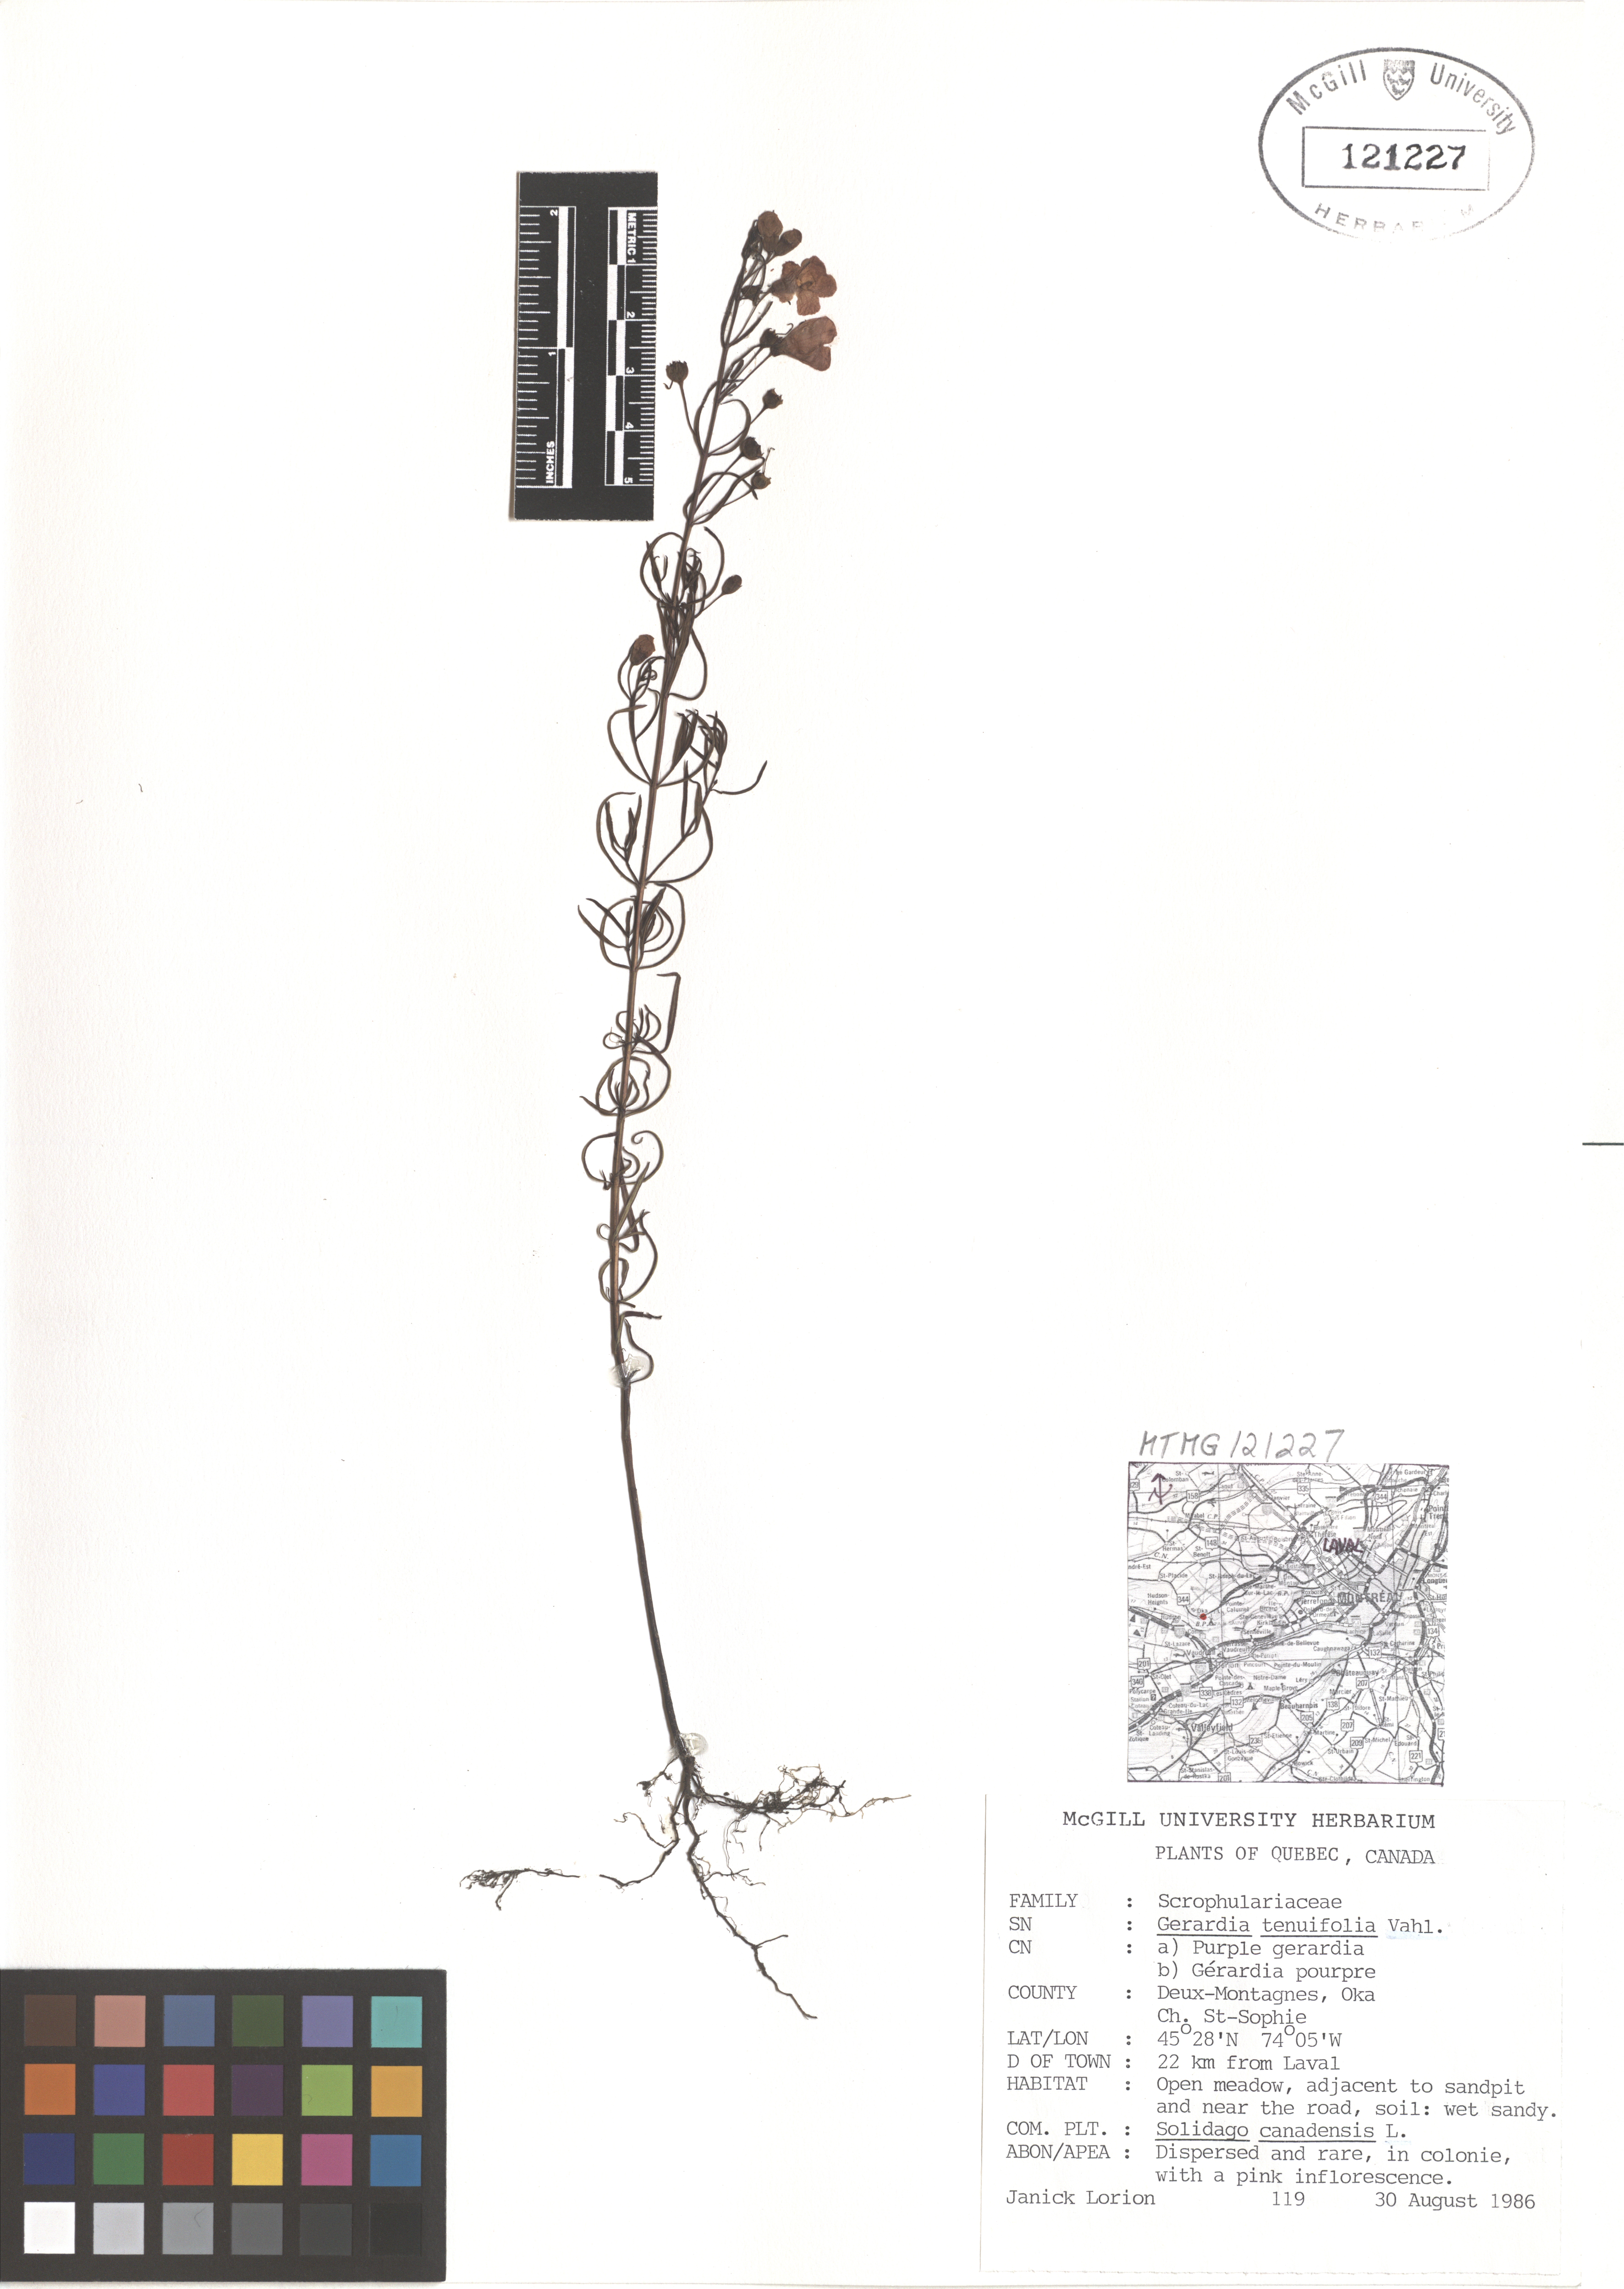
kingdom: Plantae
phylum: Tracheophyta
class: Magnoliopsida
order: Lamiales
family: Orobanchaceae
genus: Agalinis
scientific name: Agalinis tenuifolia
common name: Slender agalinis
